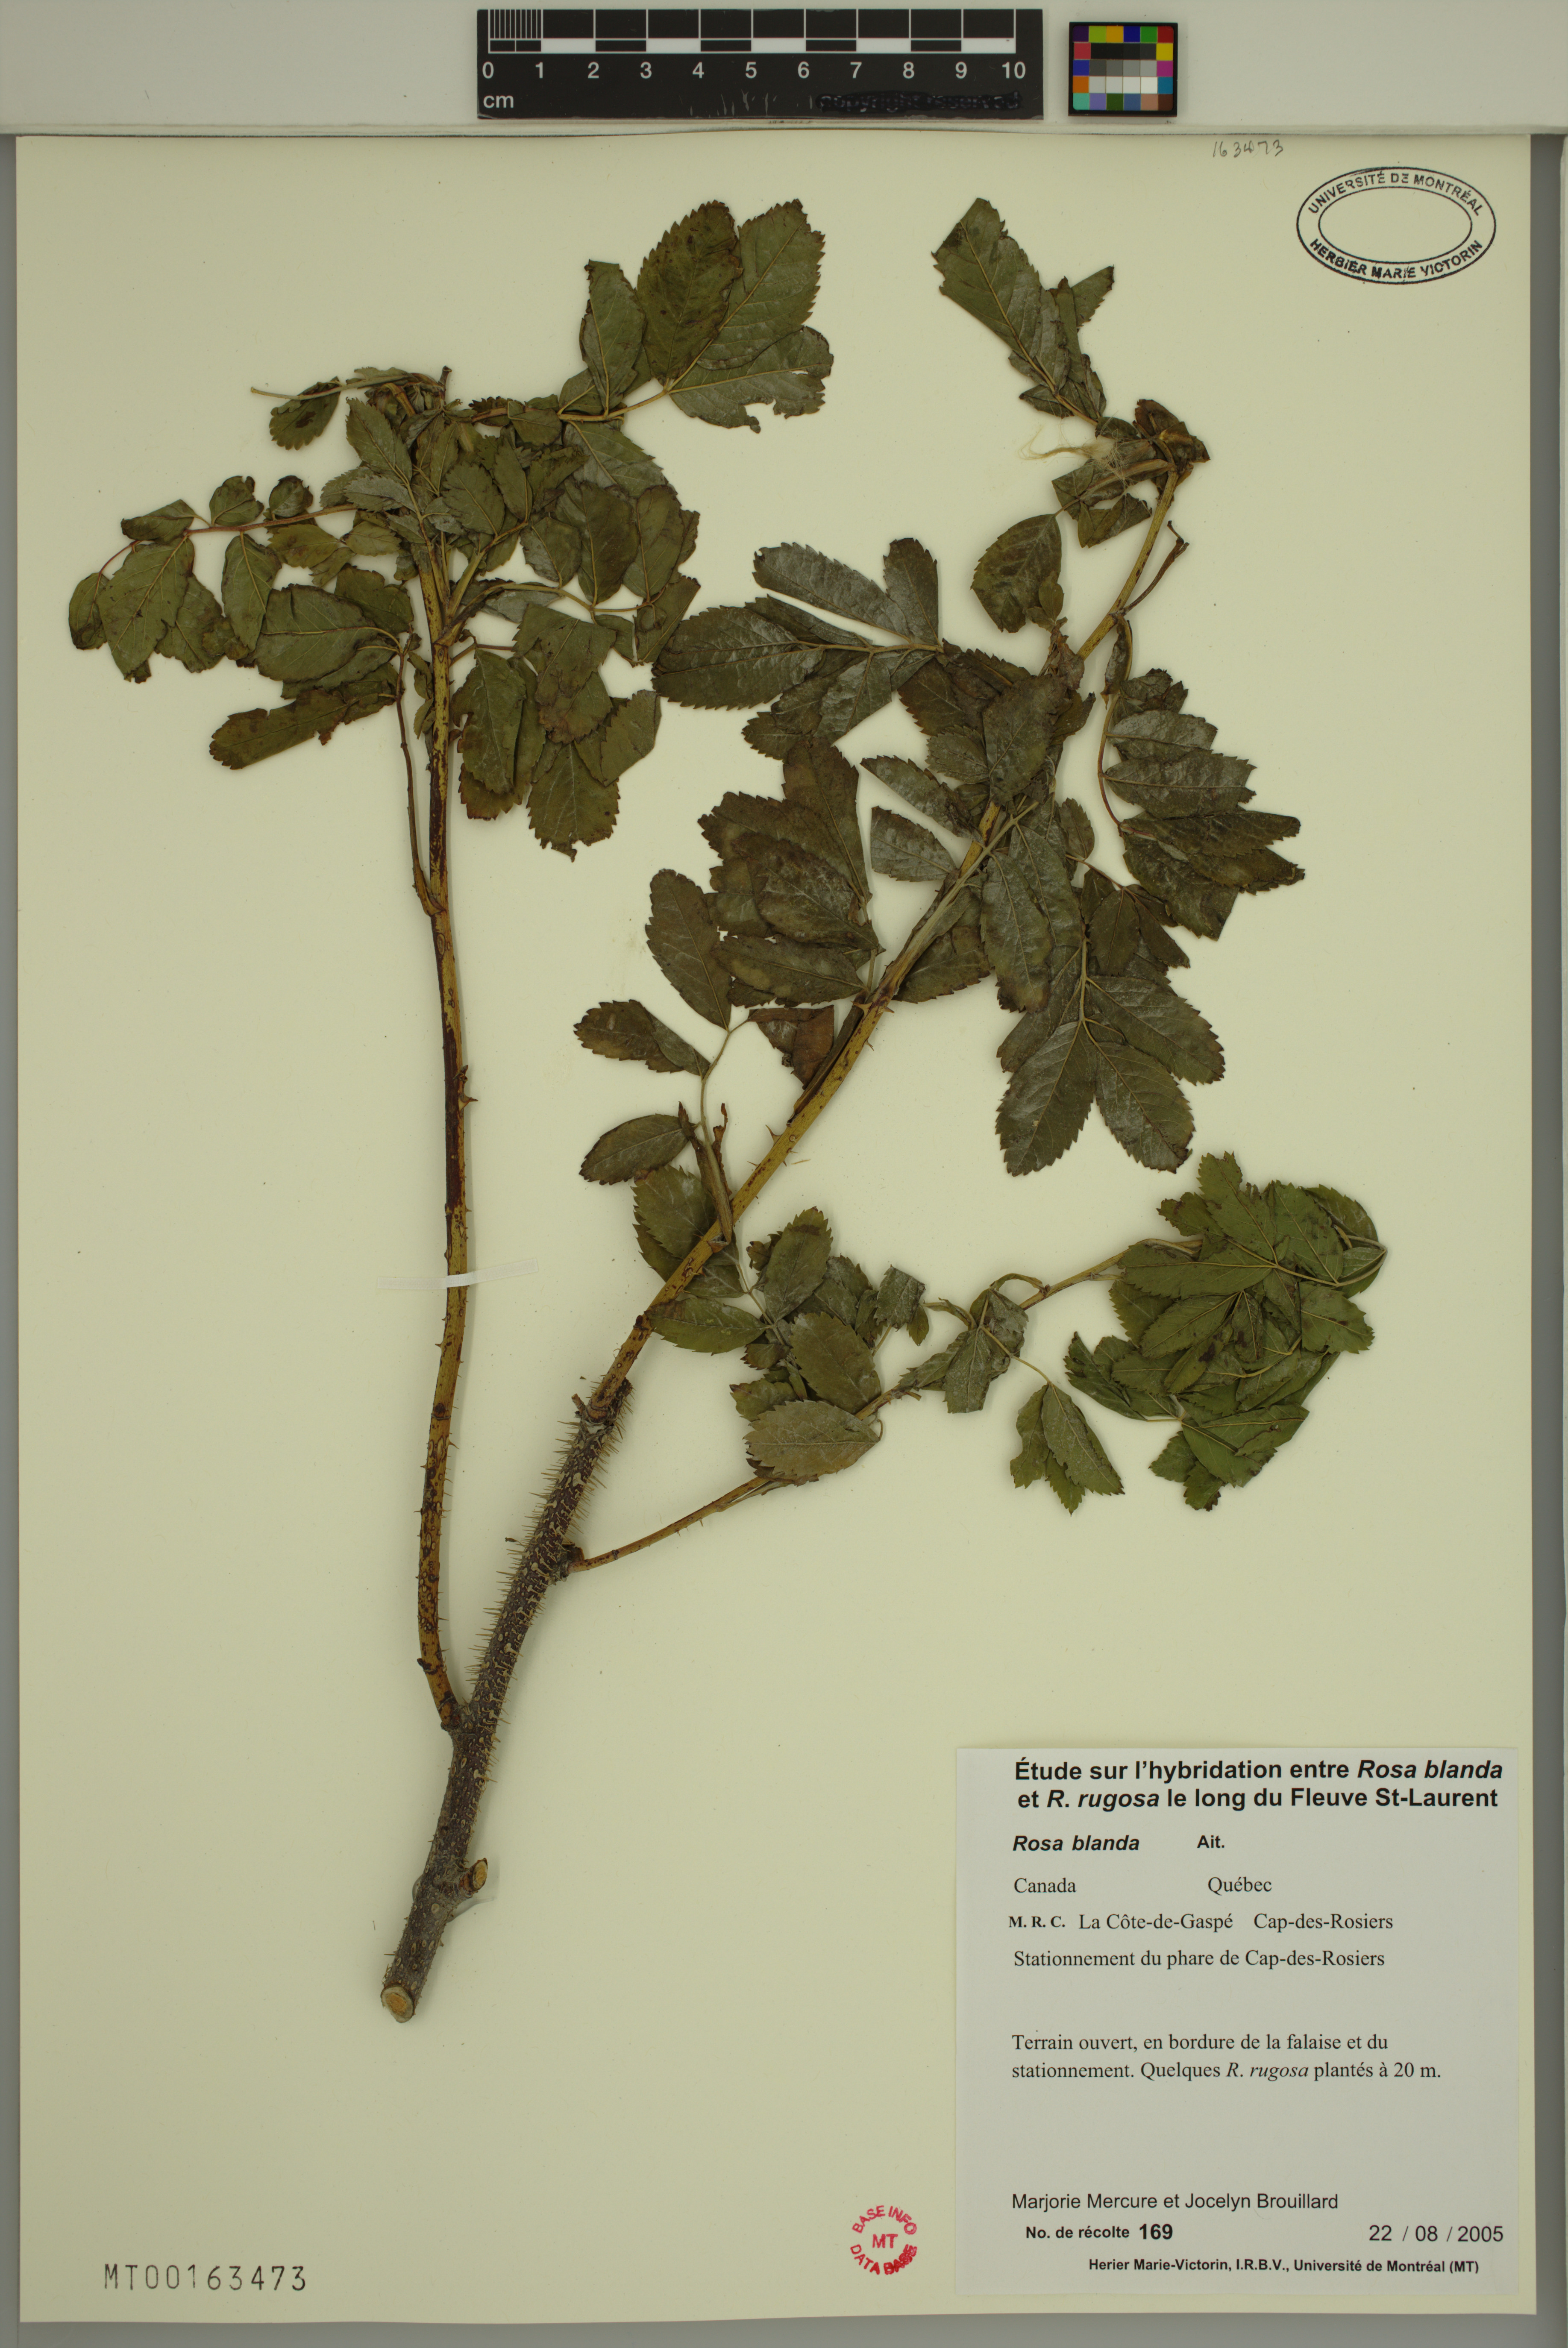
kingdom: Plantae
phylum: Tracheophyta
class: Magnoliopsida
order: Rosales
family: Rosaceae
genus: Rosa
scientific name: Rosa blanda
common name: Smooth rose
